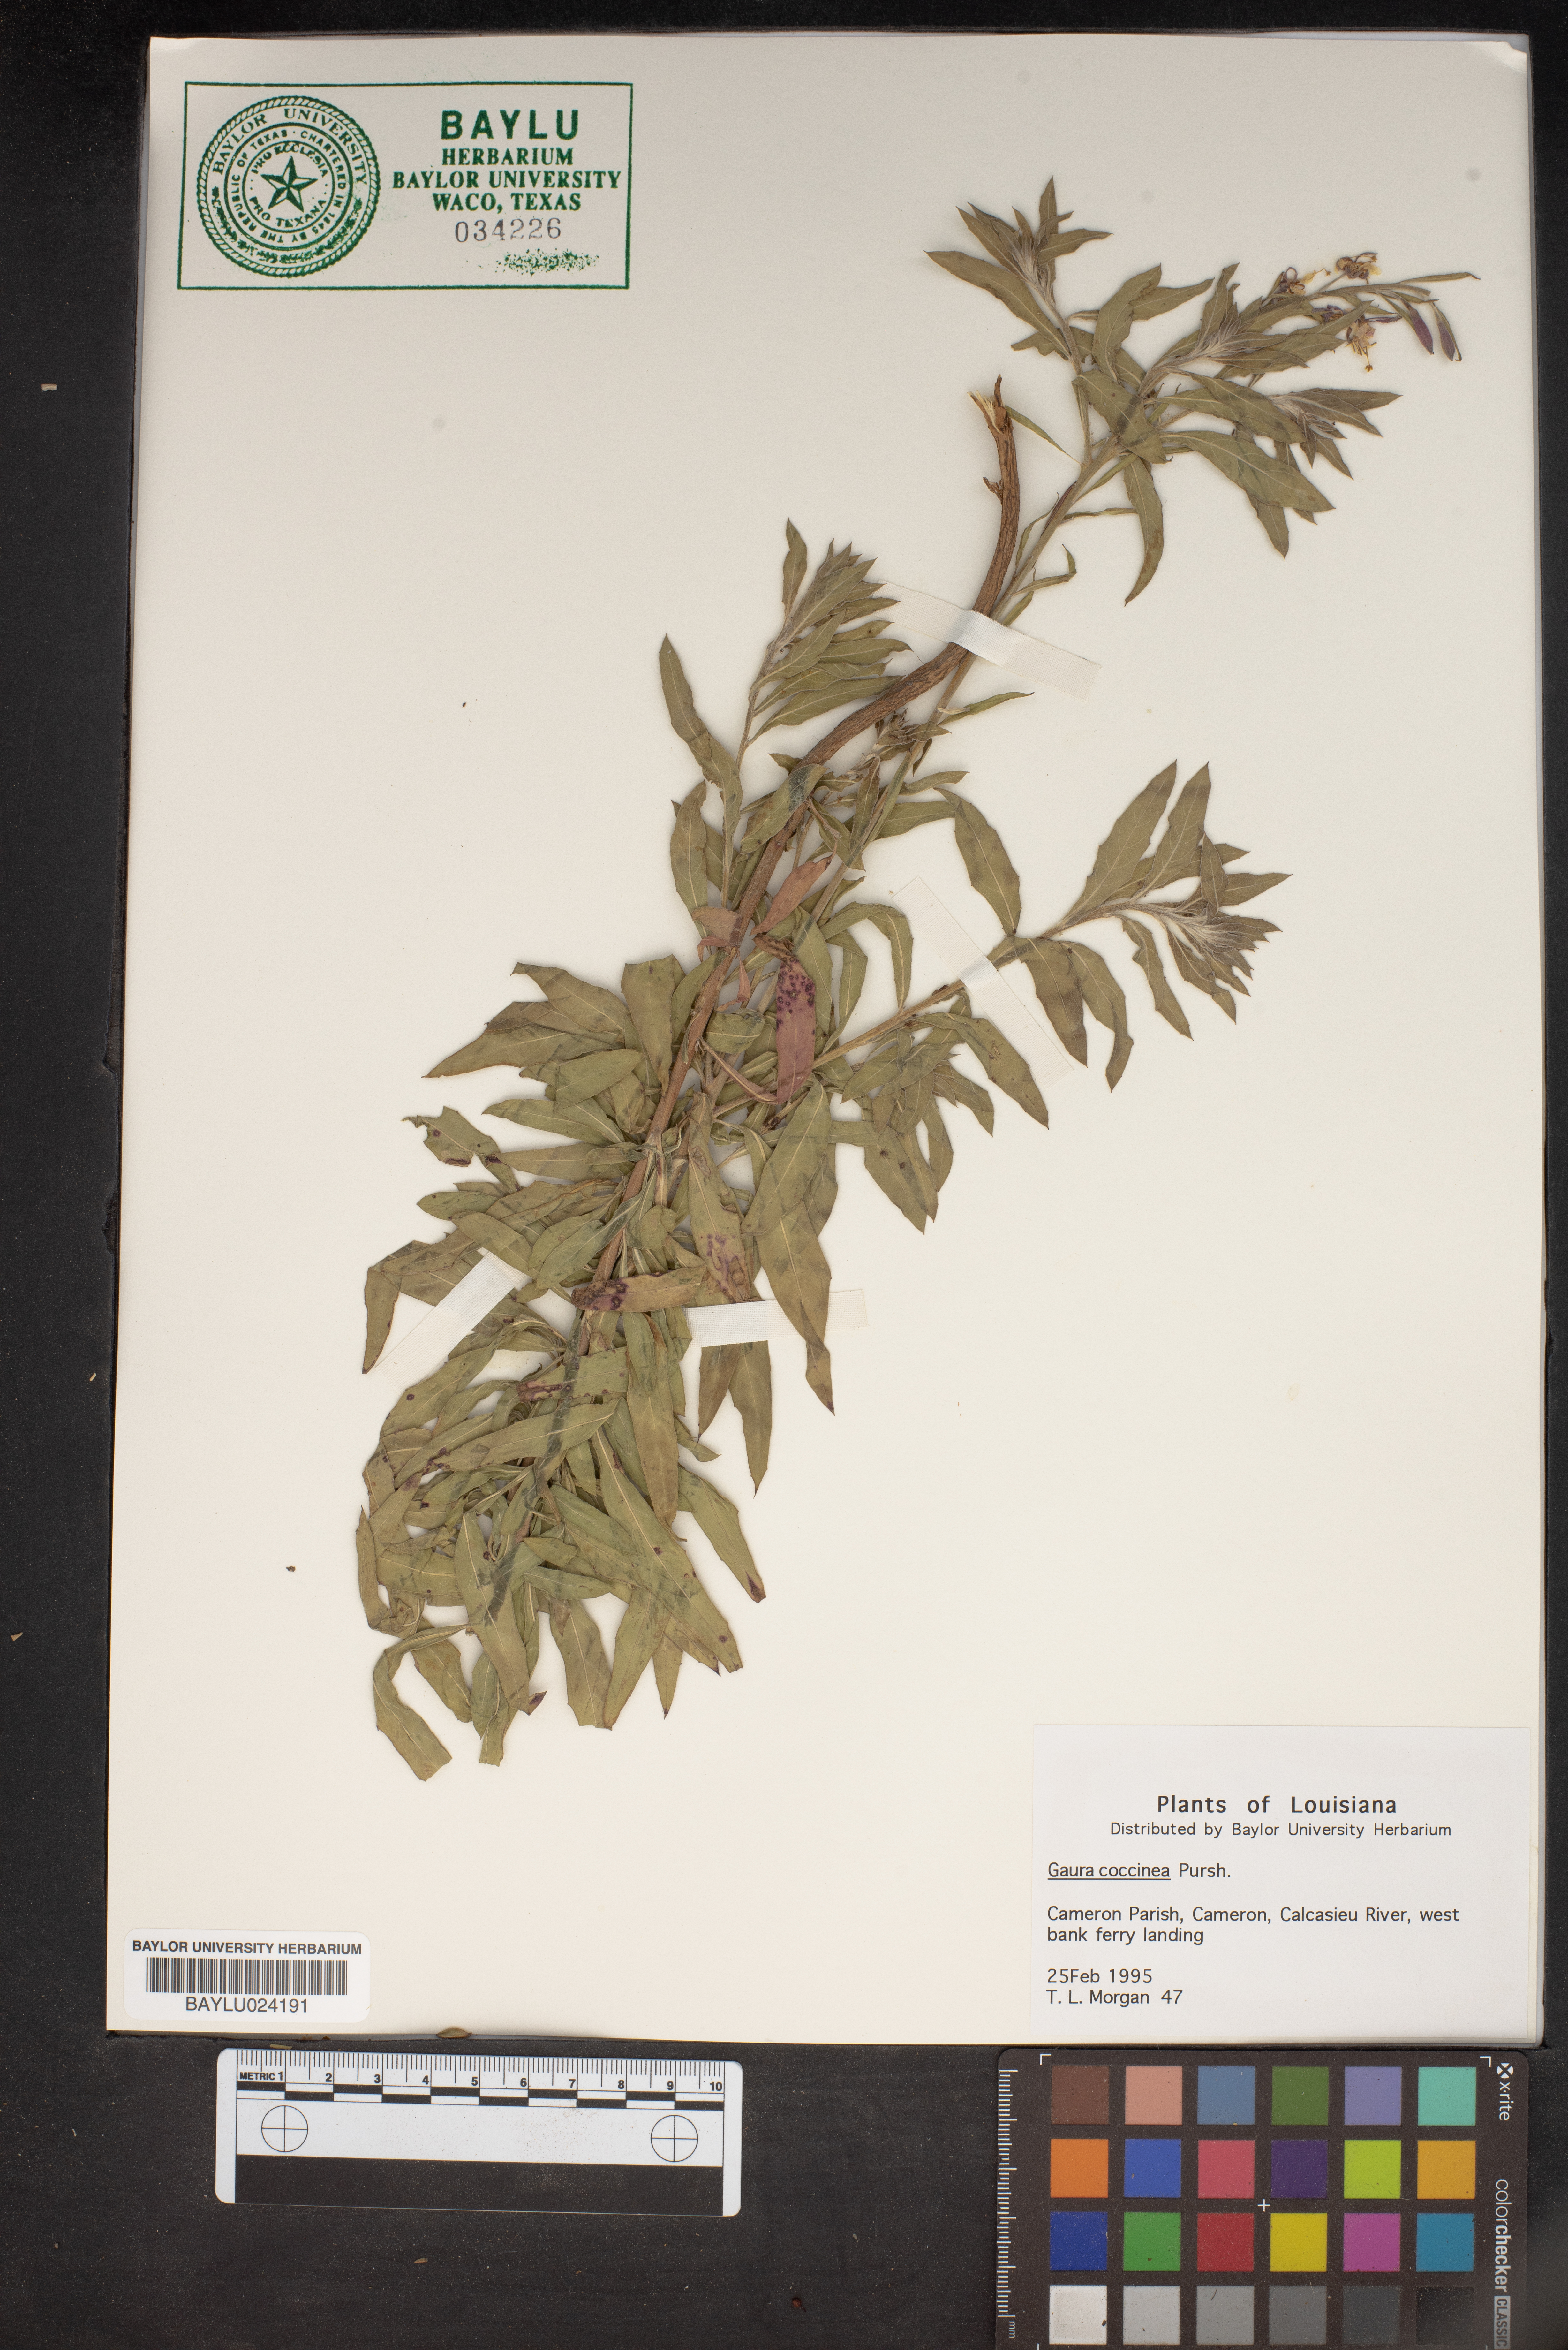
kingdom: Plantae
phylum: Tracheophyta
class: Magnoliopsida
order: Myrtales
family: Onagraceae
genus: Oenothera
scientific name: Oenothera suffrutescens
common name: Scarlet beeblossom
